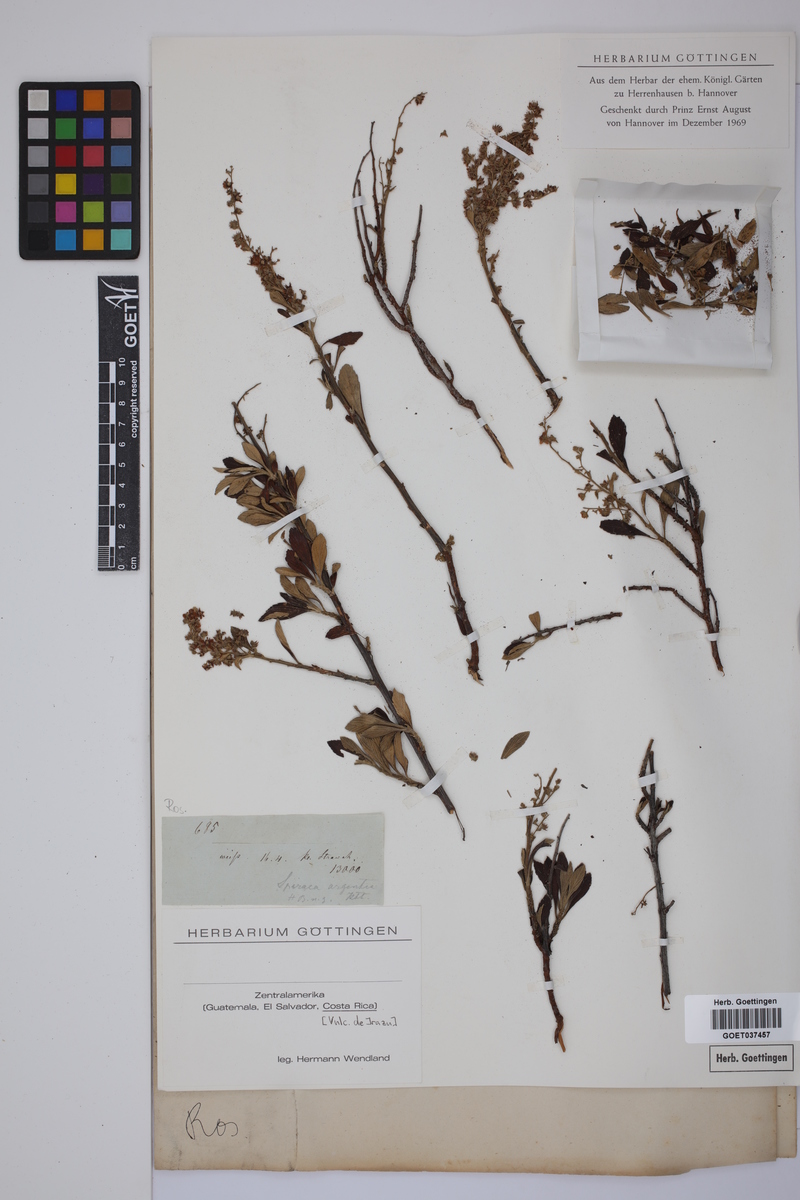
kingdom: Plantae
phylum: Tracheophyta
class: Magnoliopsida
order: Rosales
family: Rosaceae
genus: Holodiscus
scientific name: Holodiscus argenteus
